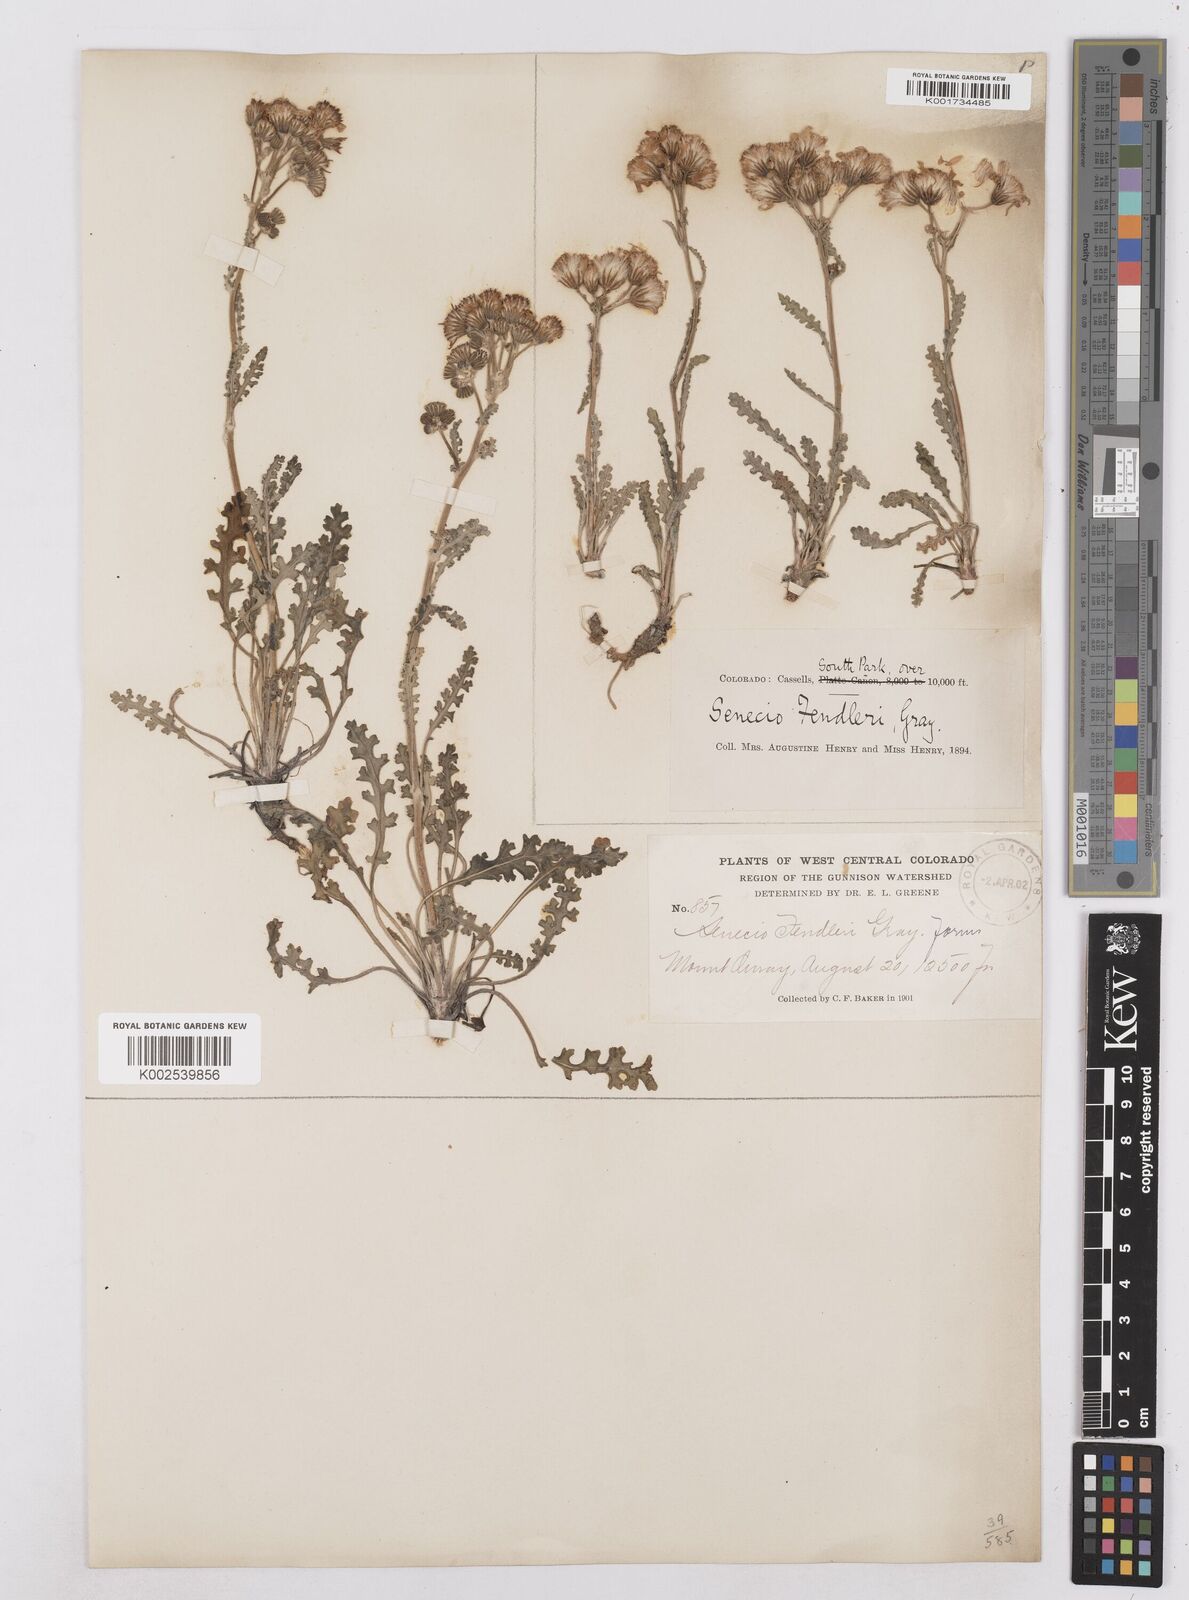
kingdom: Plantae
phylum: Tracheophyta
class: Magnoliopsida
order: Asterales
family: Asteraceae
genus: Packera
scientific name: Packera fendleri
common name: Notch-leaf butterweed
